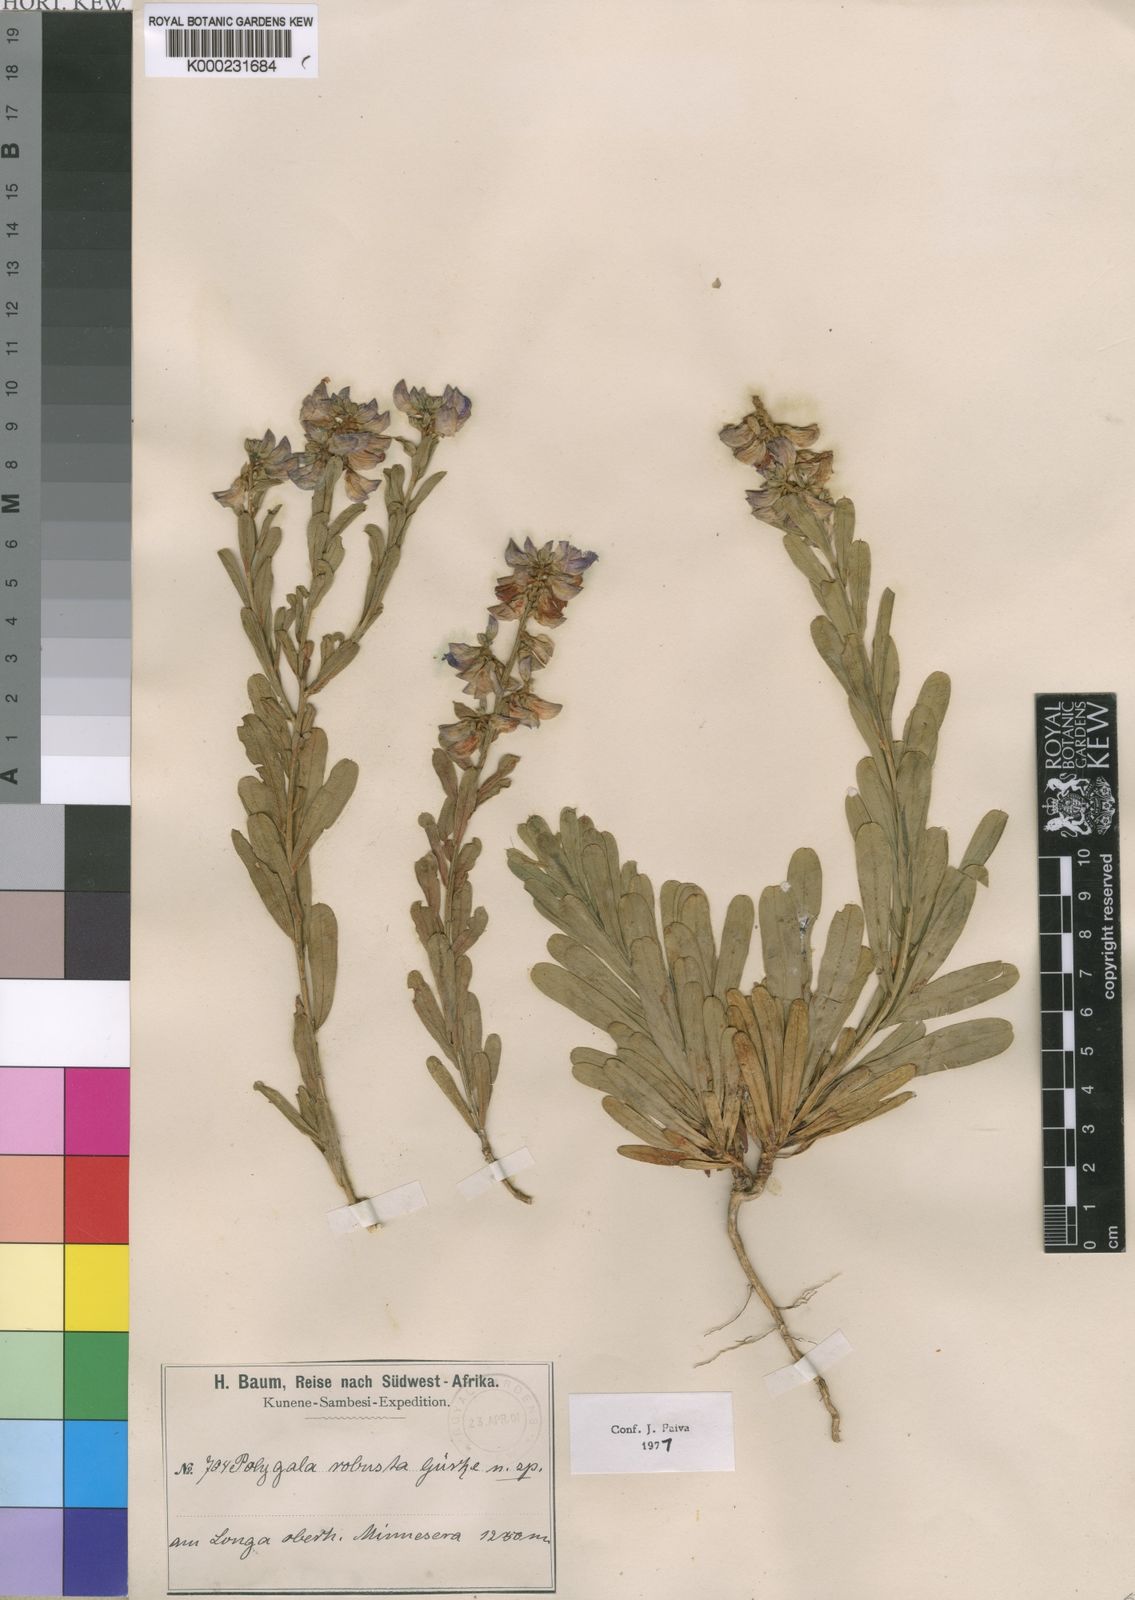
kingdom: Plantae
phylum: Tracheophyta
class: Magnoliopsida
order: Fabales
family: Polygalaceae
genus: Polygala
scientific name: Polygala
